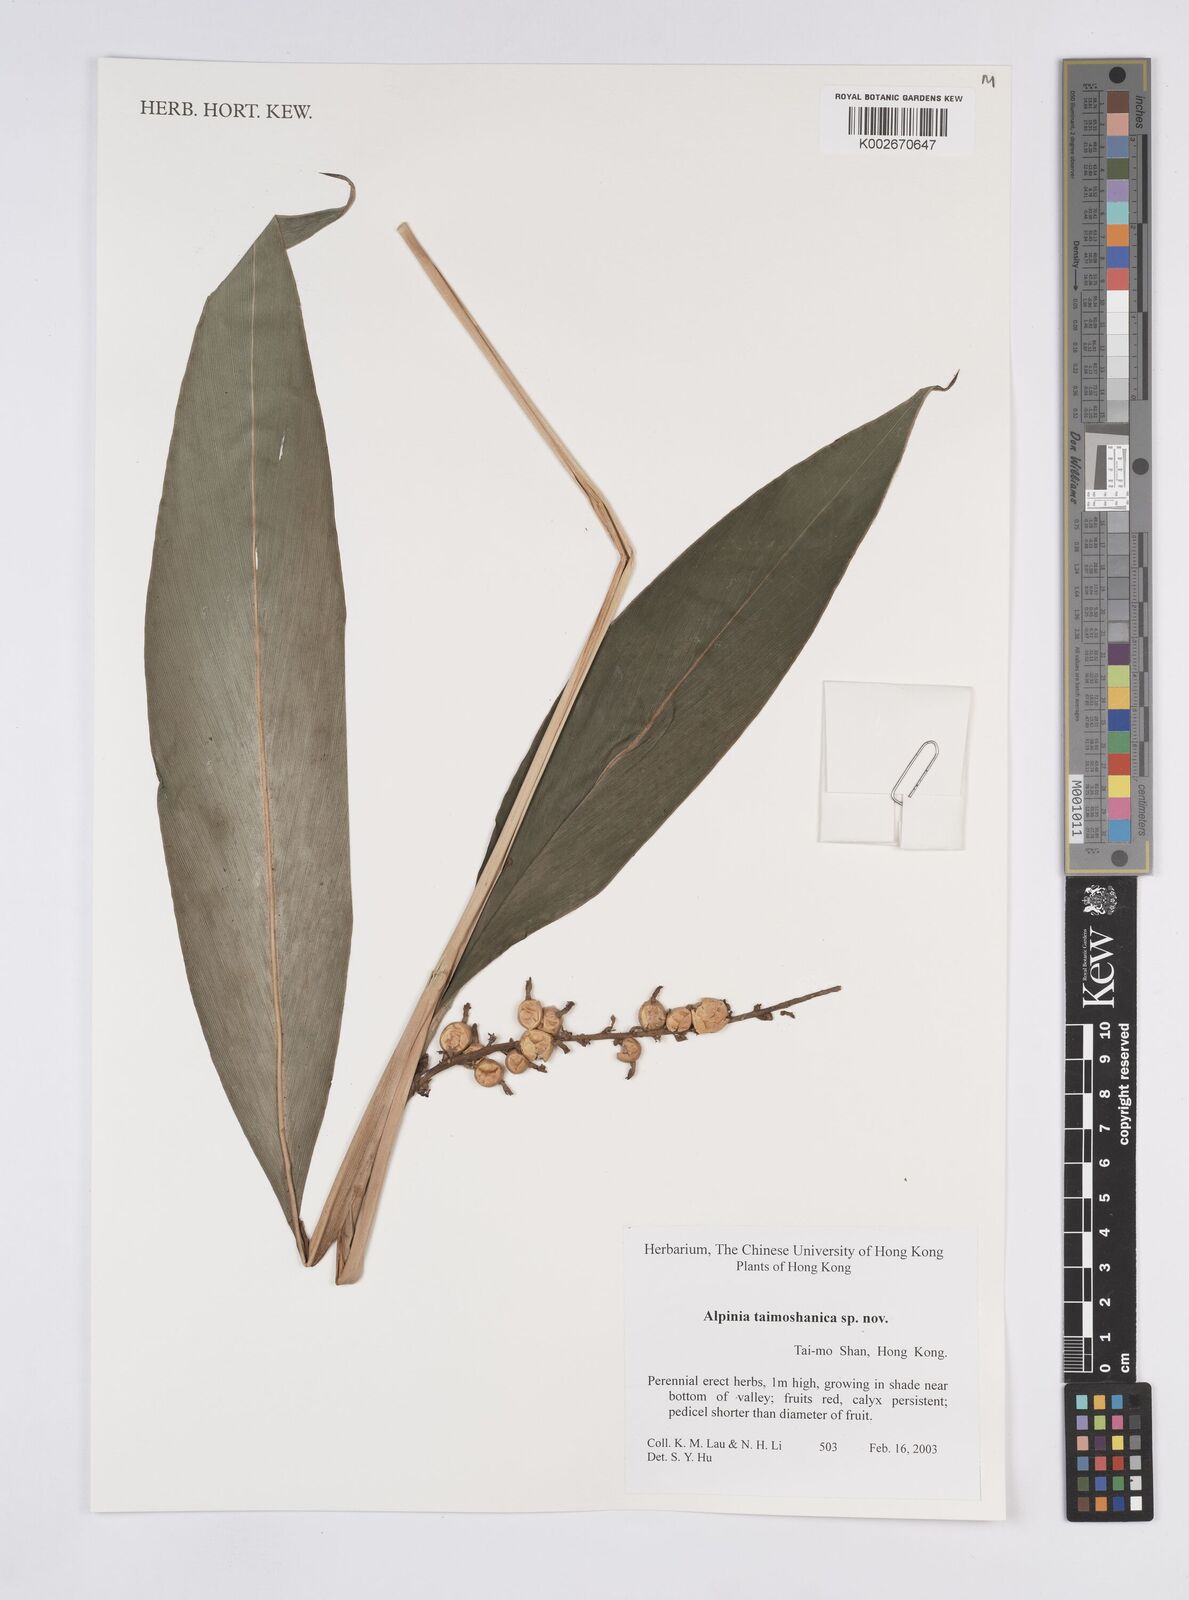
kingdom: Plantae
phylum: Tracheophyta
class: Liliopsida
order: Zingiberales
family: Zingiberaceae
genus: Alpinia
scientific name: Alpinia
